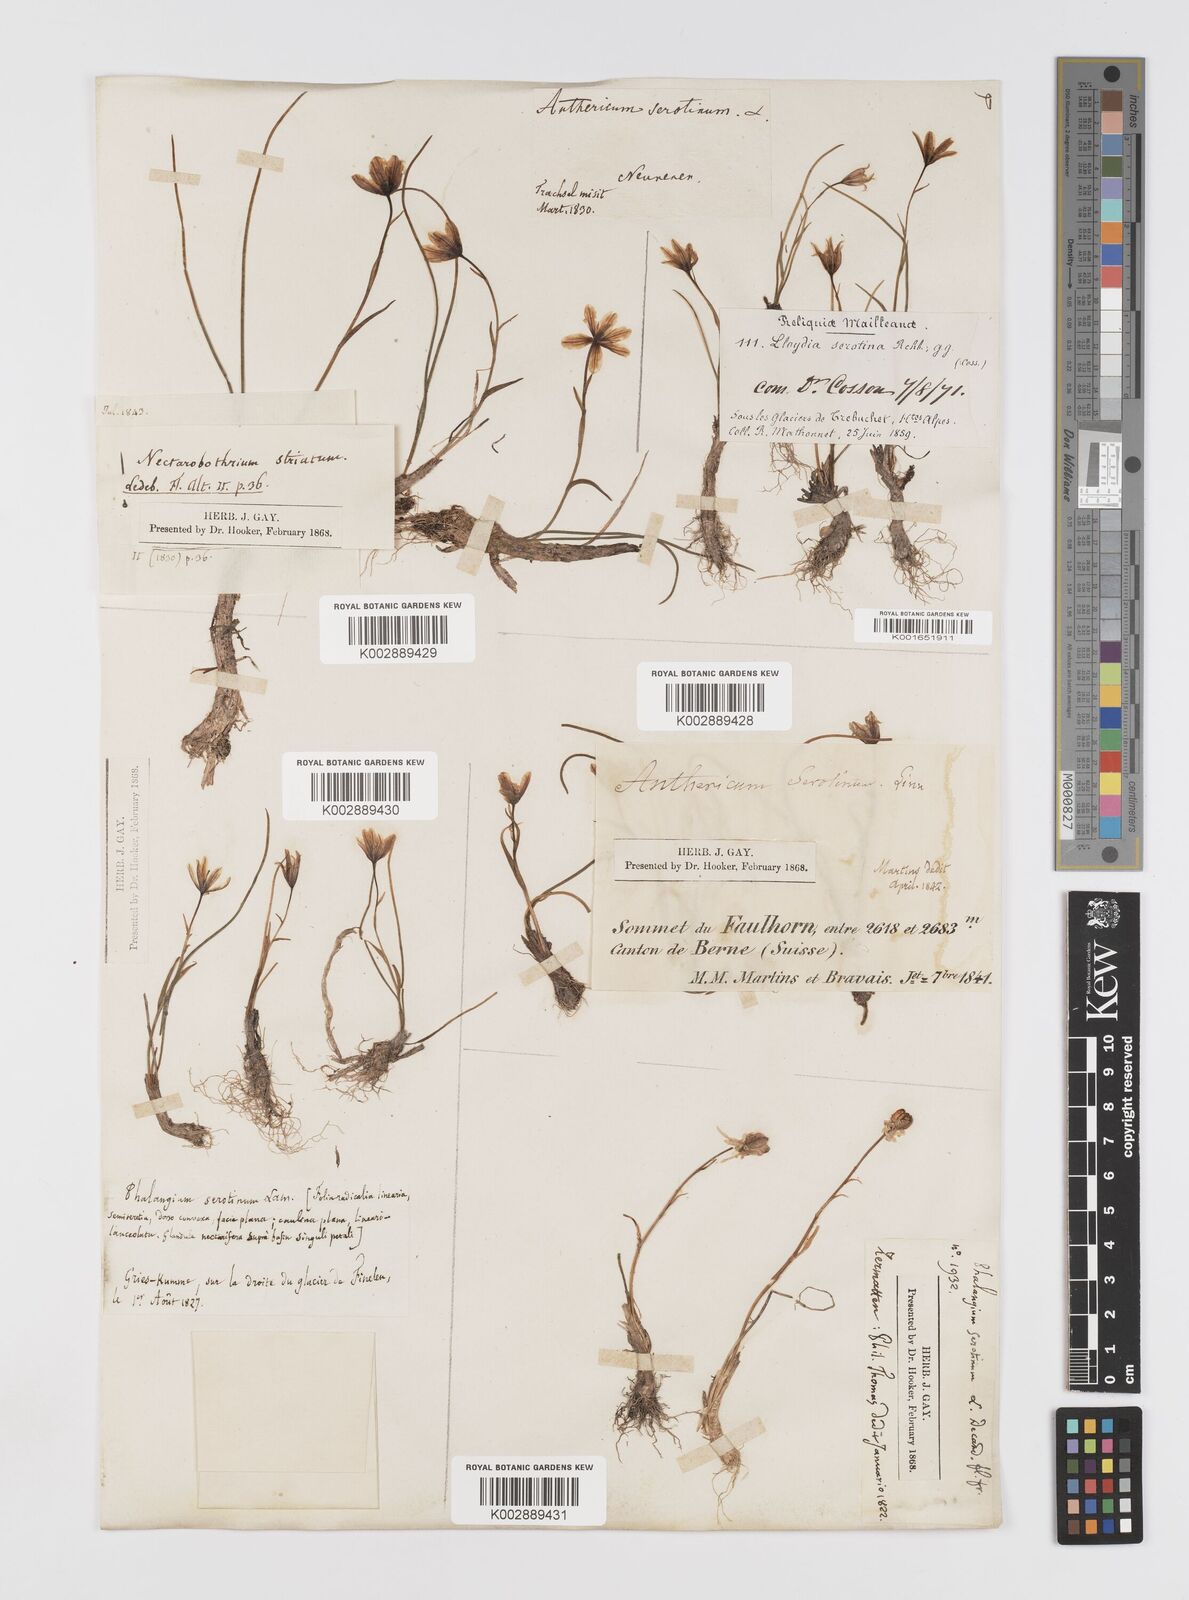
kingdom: Plantae
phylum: Tracheophyta
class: Liliopsida
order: Liliales
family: Liliaceae
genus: Gagea
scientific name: Gagea
